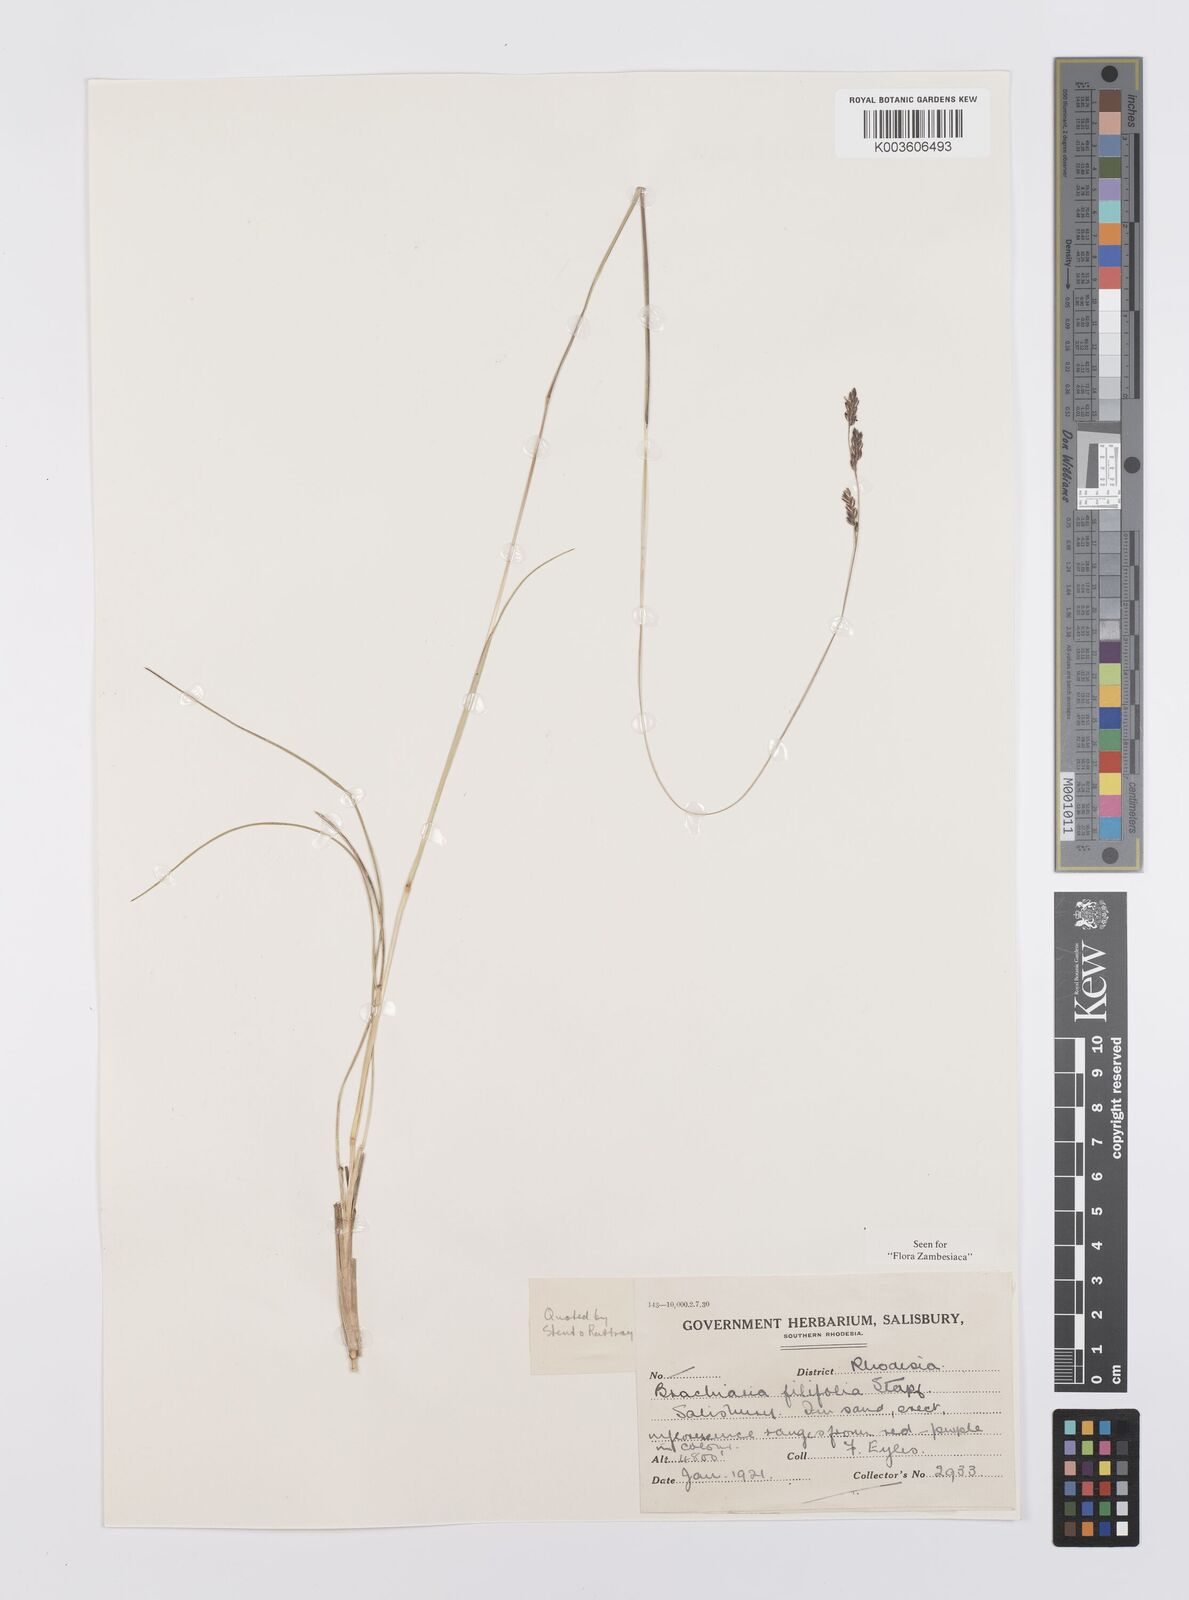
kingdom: Plantae
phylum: Tracheophyta
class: Liliopsida
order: Poales
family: Poaceae
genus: Urochloa
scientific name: Urochloa subulifolia
